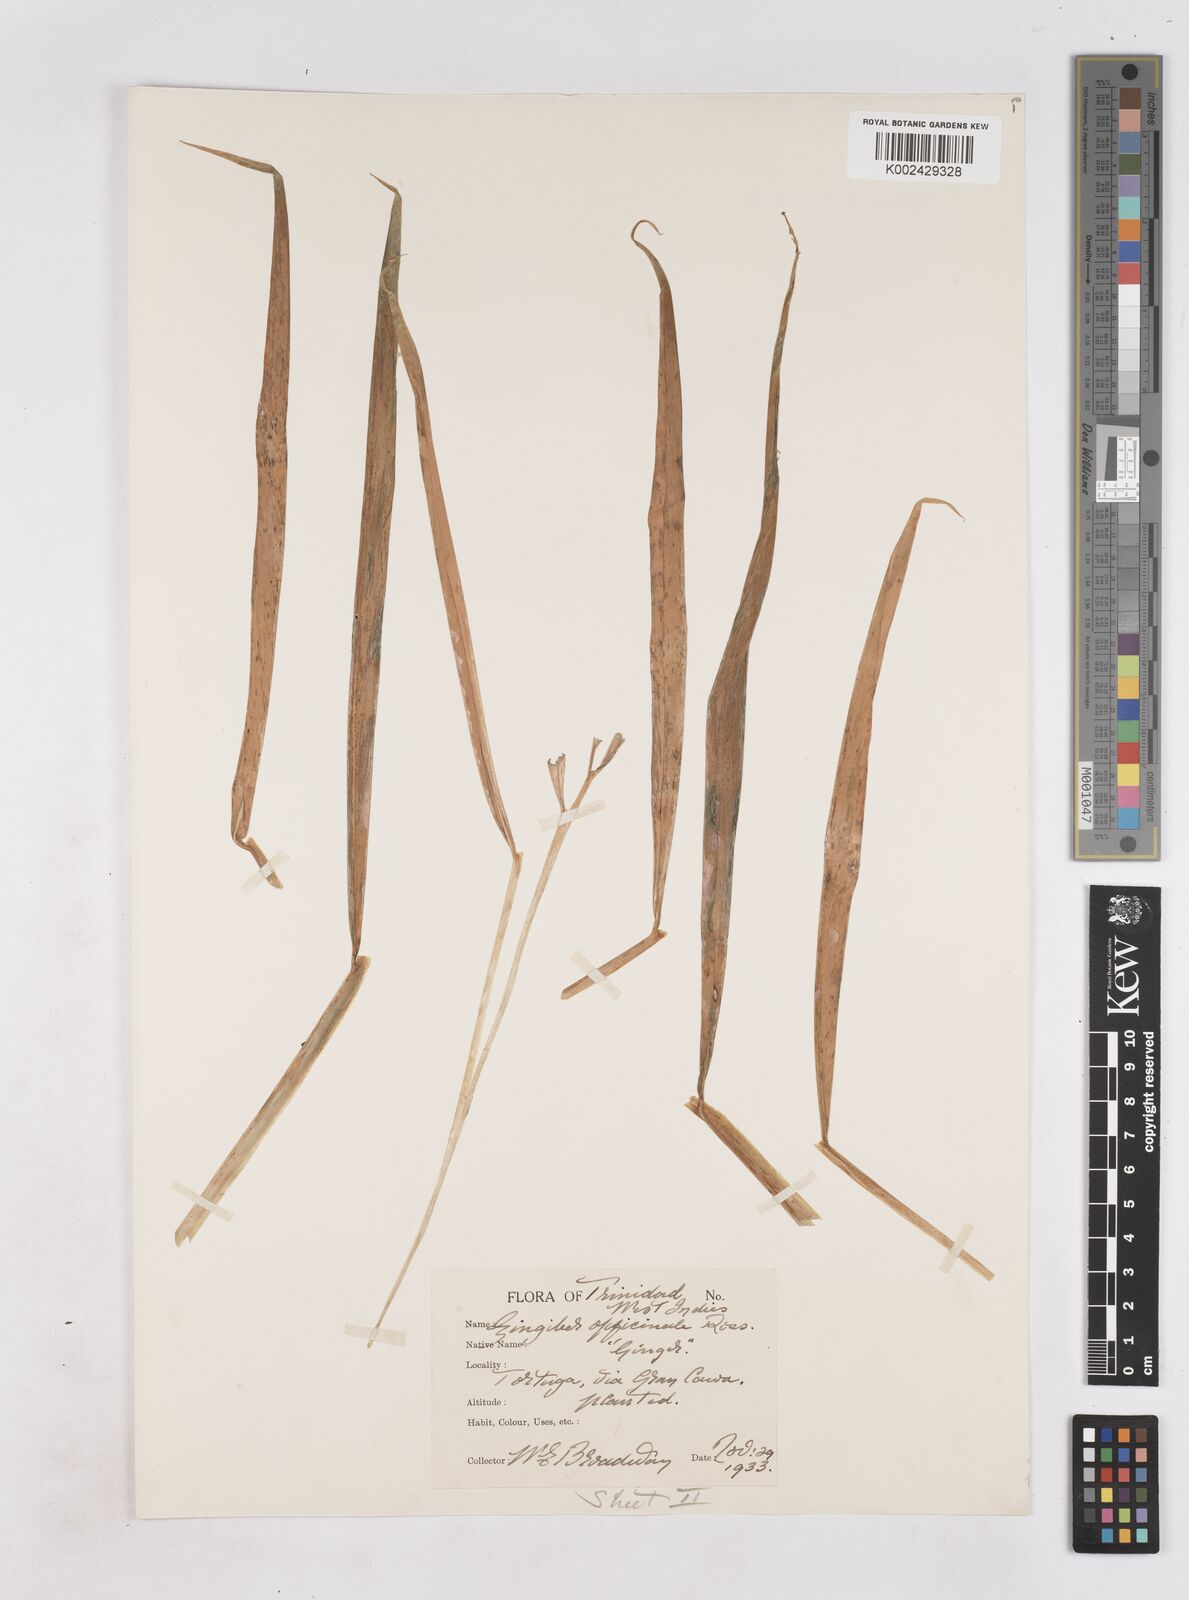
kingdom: Plantae
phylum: Tracheophyta
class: Liliopsida
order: Zingiberales
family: Zingiberaceae
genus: Zingiber
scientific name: Zingiber officinale
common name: Ginger
